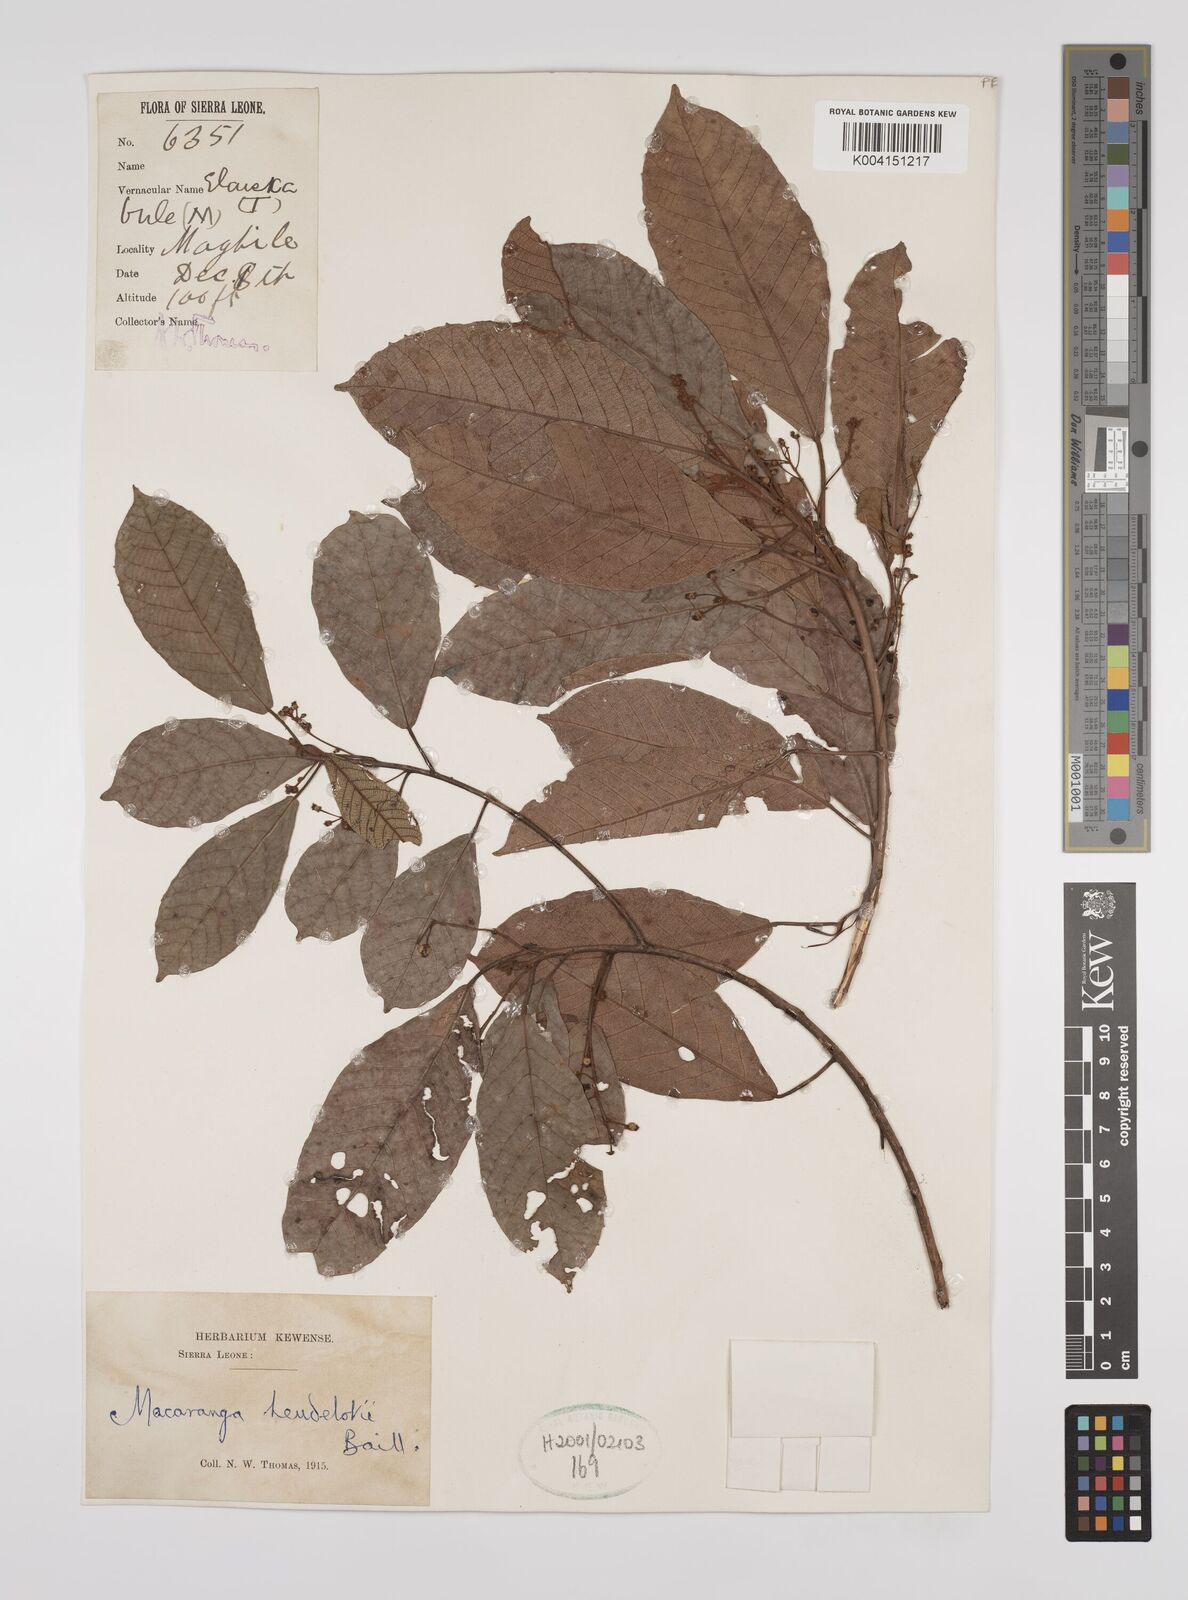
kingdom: Plantae
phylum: Tracheophyta
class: Magnoliopsida
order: Malpighiales
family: Euphorbiaceae
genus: Macaranga
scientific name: Macaranga heudelotii
